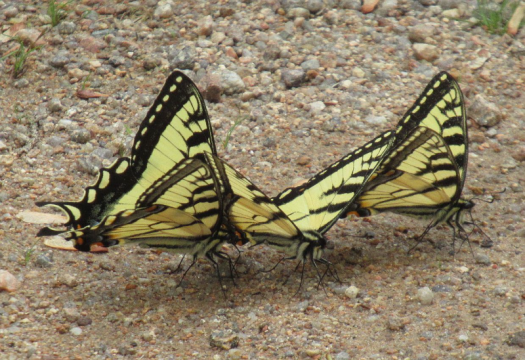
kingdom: Animalia
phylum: Arthropoda
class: Insecta
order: Lepidoptera
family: Papilionidae
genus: Pterourus
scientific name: Pterourus canadensis
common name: Canadian Tiger Swallowtail
